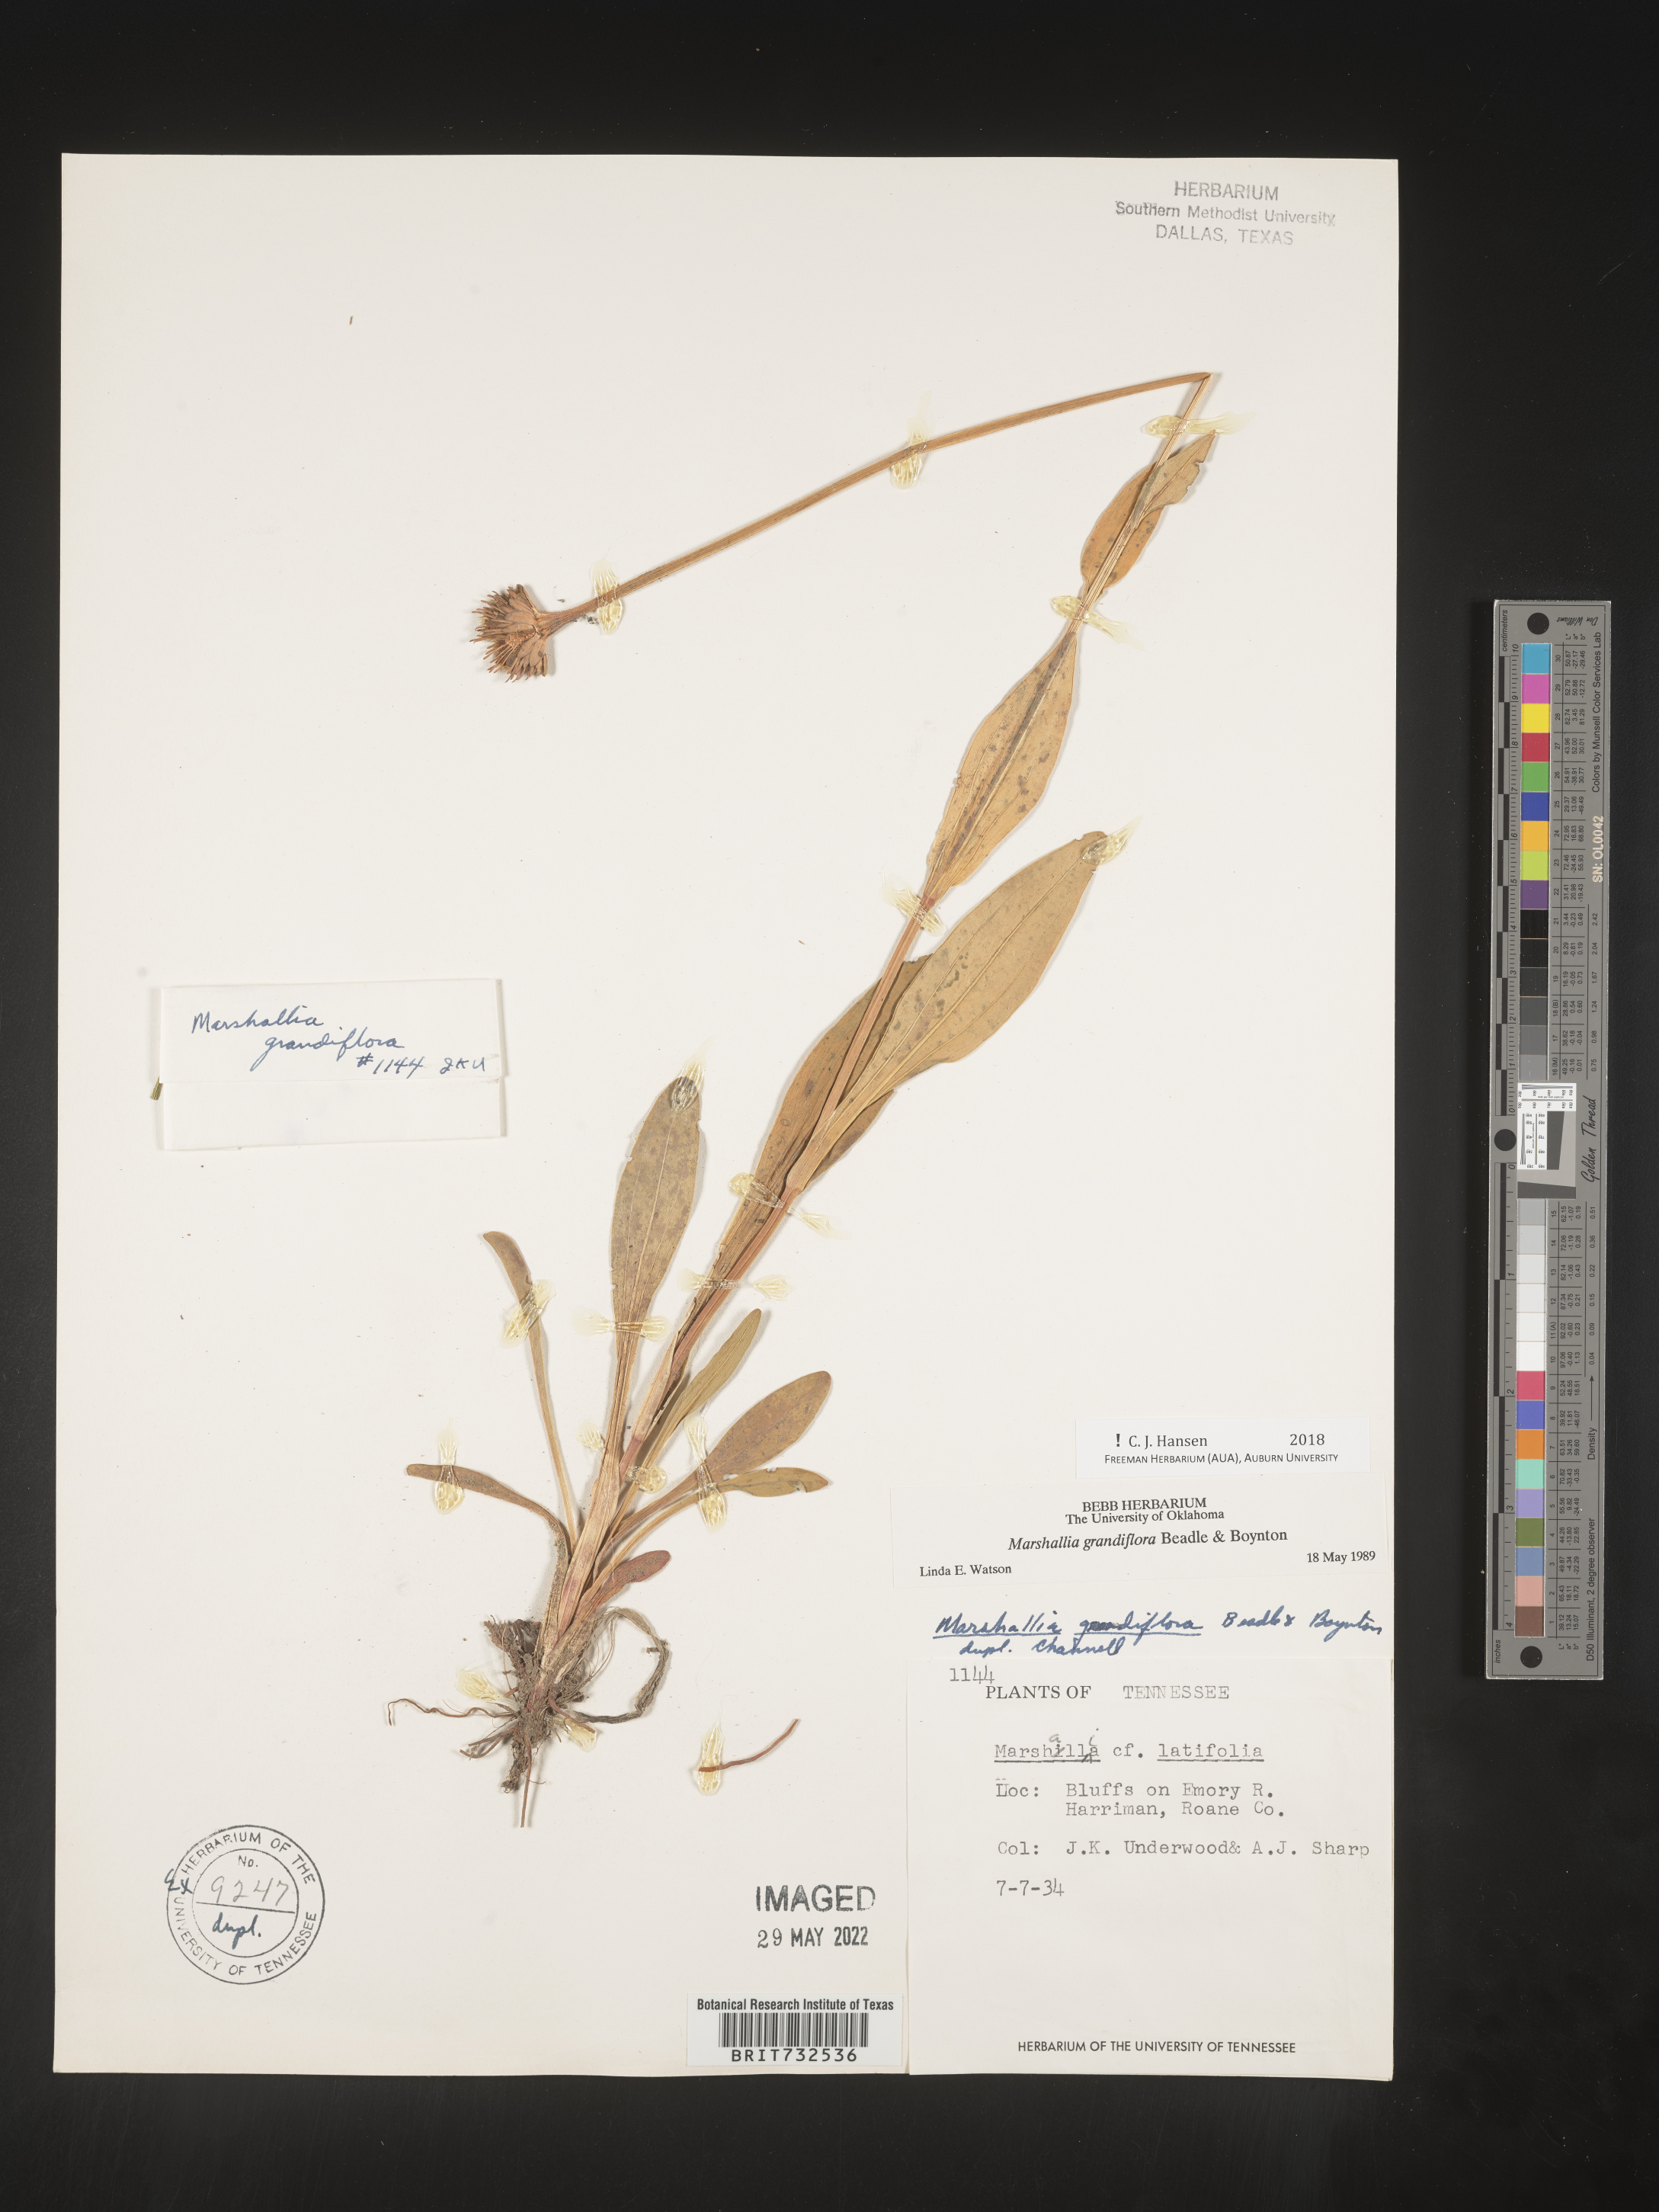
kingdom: Plantae
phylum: Tracheophyta
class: Magnoliopsida
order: Asterales
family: Asteraceae
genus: Marshallia
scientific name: Marshallia grandiflora
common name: Barbara's buttons
